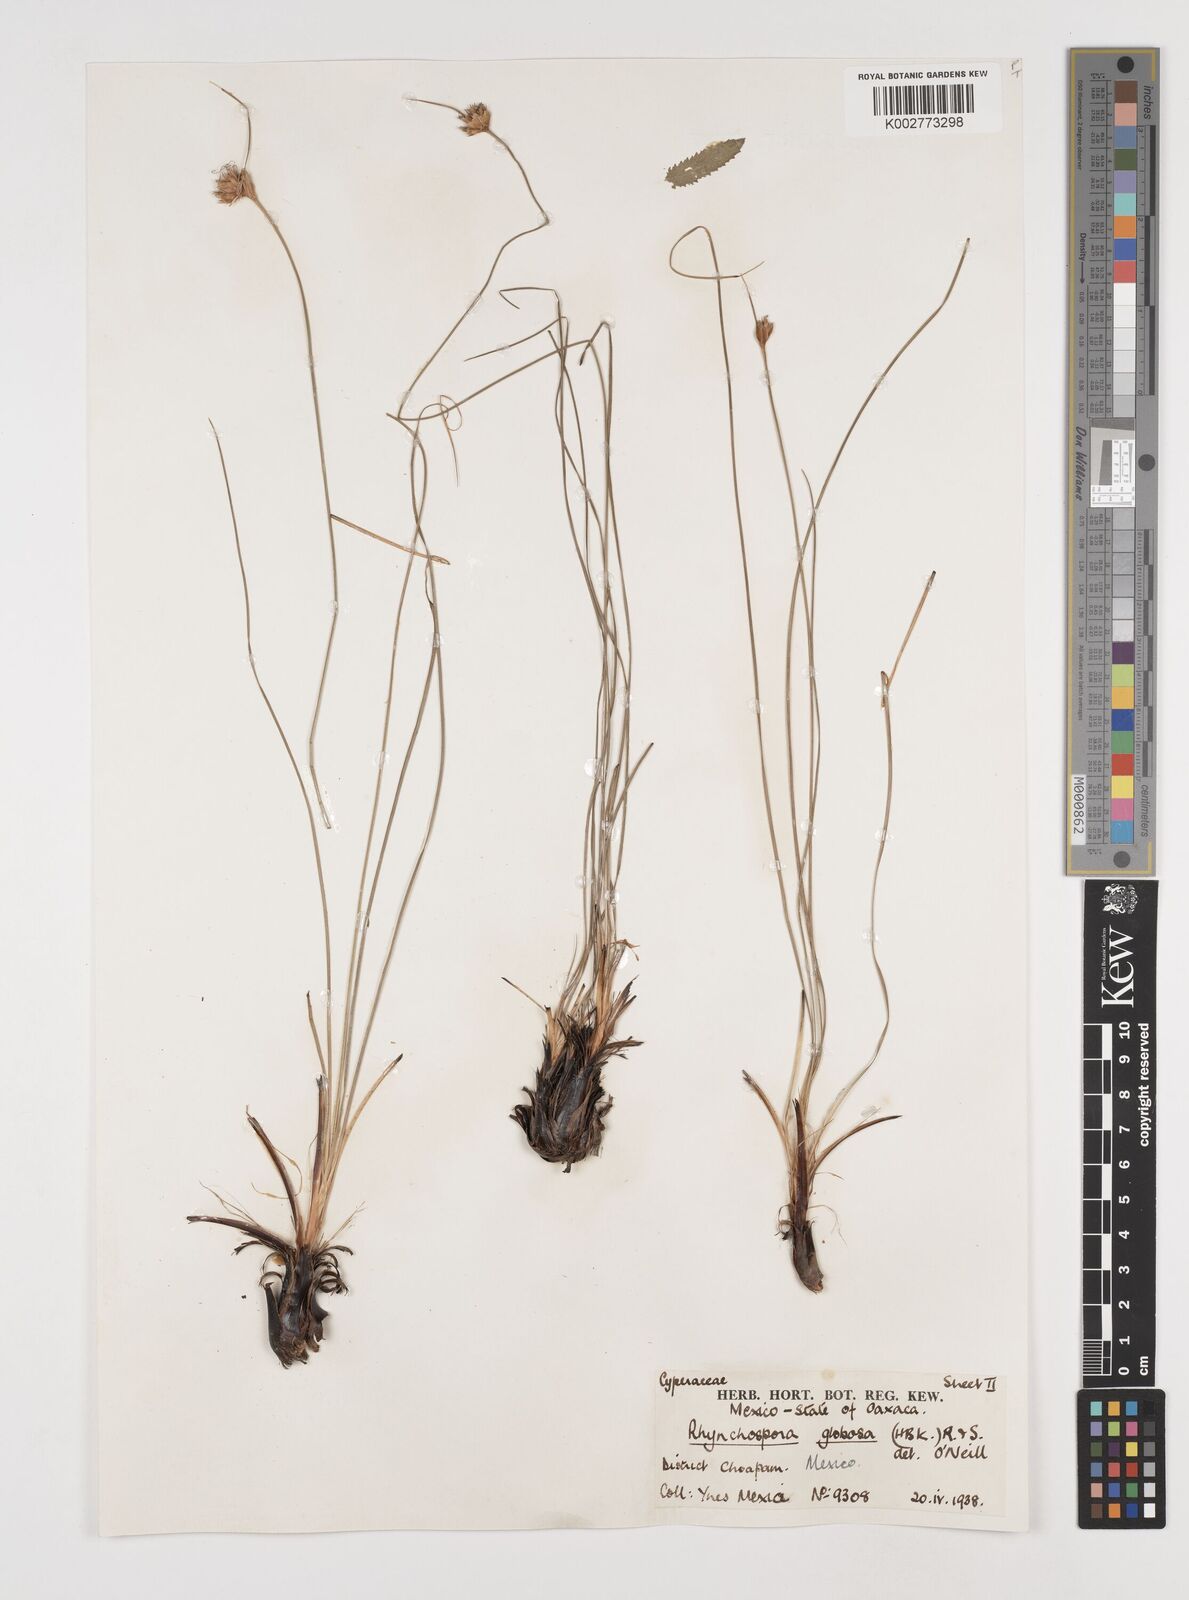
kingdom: Plantae
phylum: Tracheophyta
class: Liliopsida
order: Poales
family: Cyperaceae
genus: Rhynchospora
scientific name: Rhynchospora globosa
